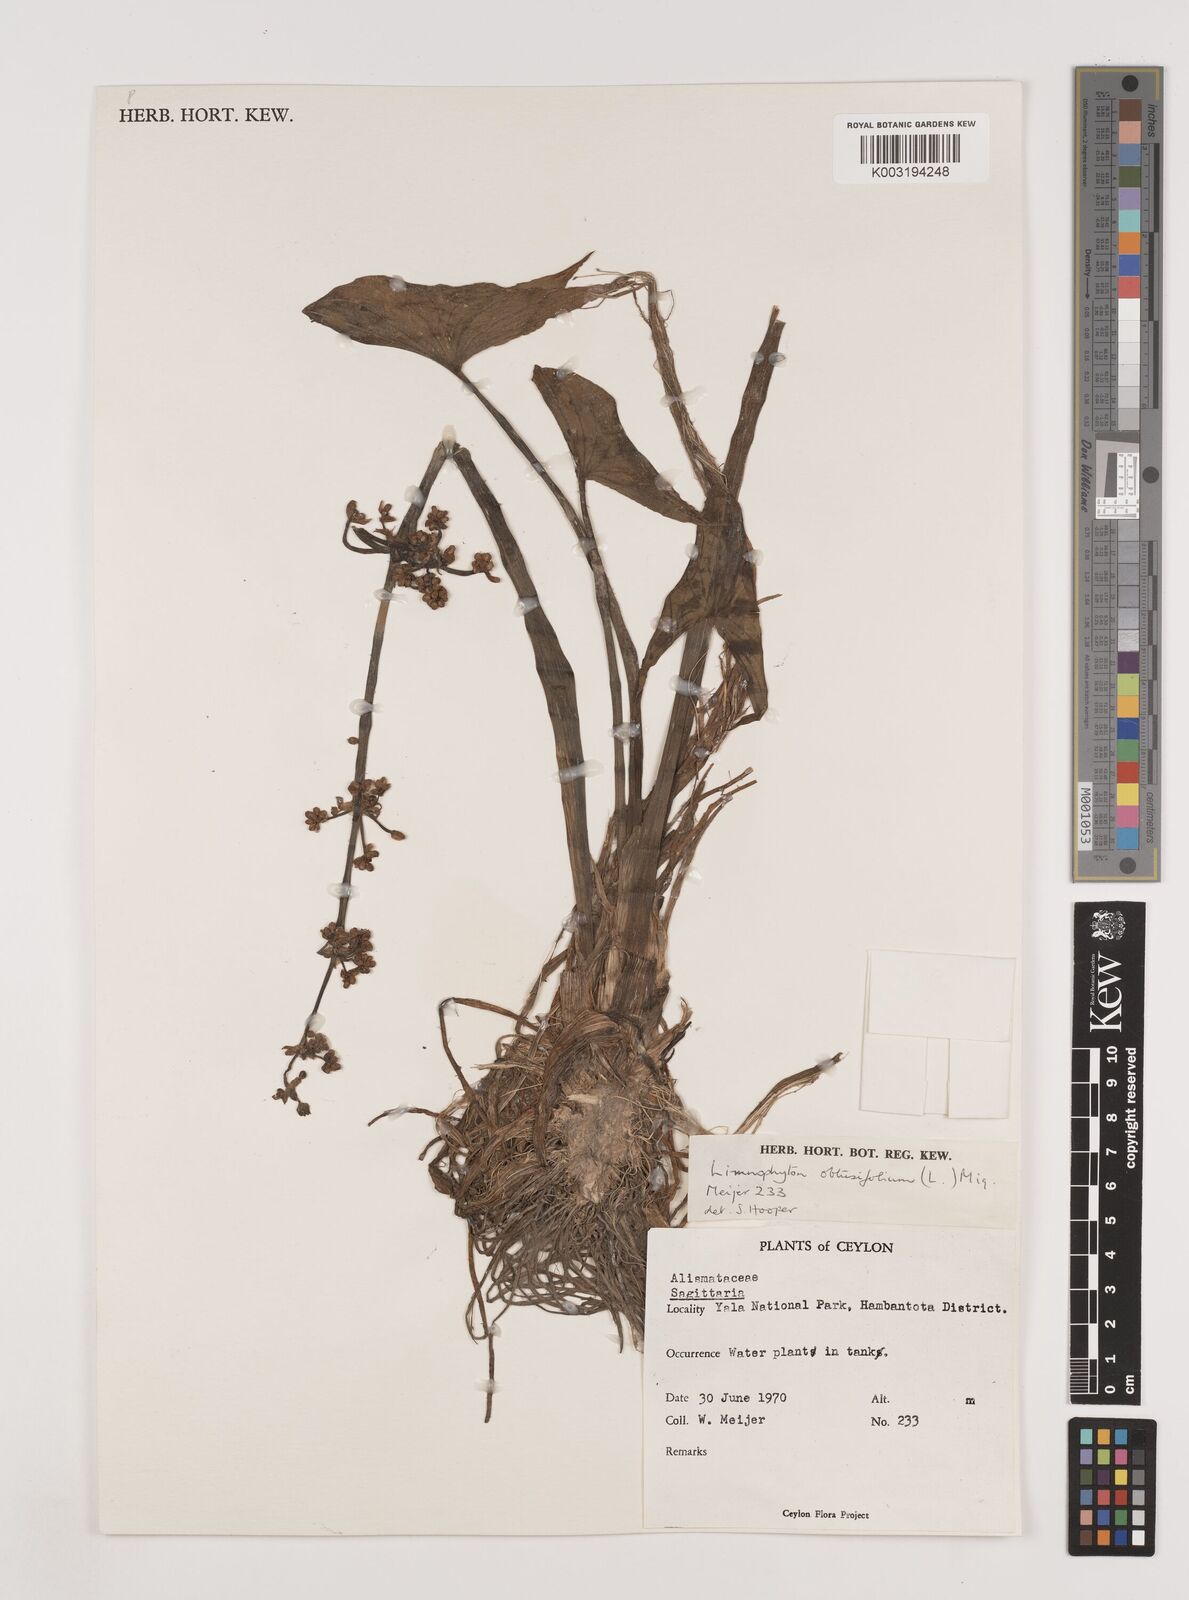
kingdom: Plantae
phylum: Tracheophyta
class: Liliopsida
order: Alismatales
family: Alismataceae
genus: Limnophyton
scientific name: Limnophyton obtusifolium
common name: Arrow head
